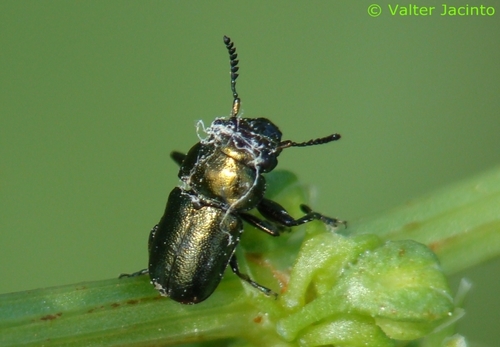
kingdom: Animalia
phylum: Arthropoda
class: Insecta
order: Coleoptera
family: Chrysomelidae
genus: Labidostomis
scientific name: Labidostomis hordei
